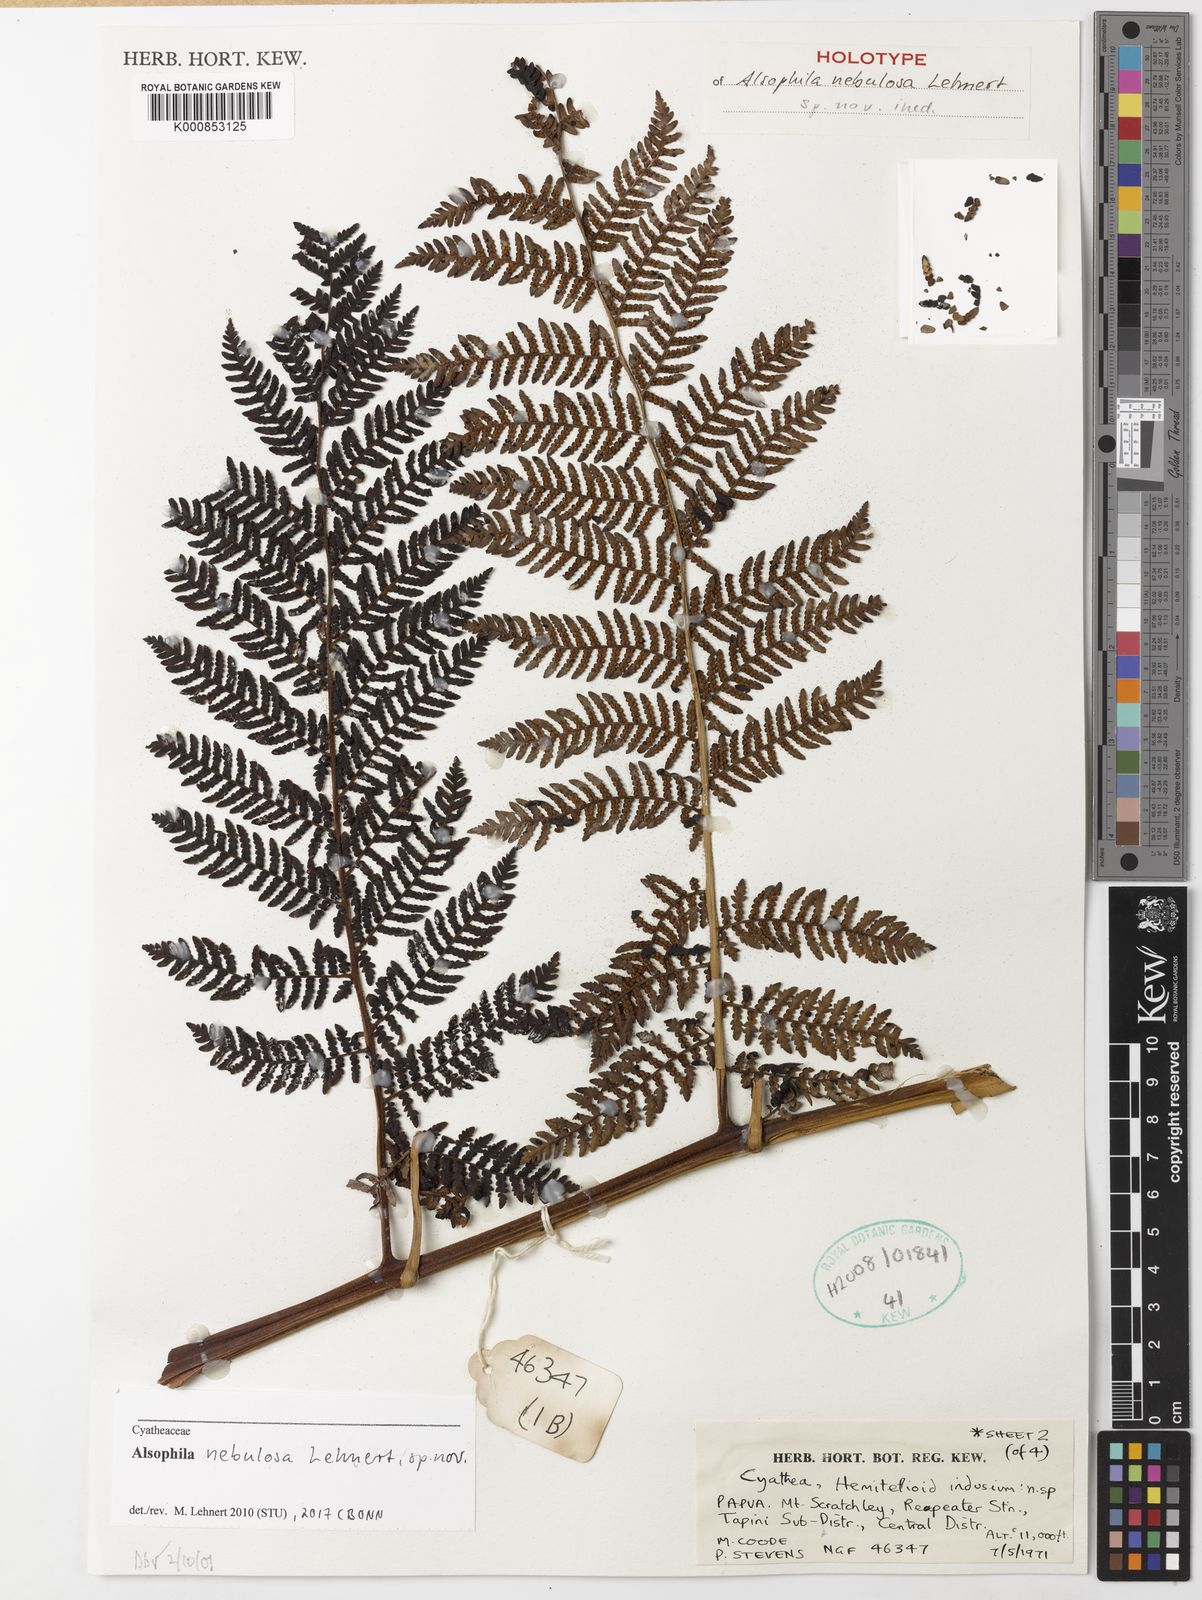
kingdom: Plantae
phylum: Tracheophyta
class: Polypodiopsida
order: Cyatheales
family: Cyatheaceae
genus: Alsophila
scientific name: Alsophila nebulosa
